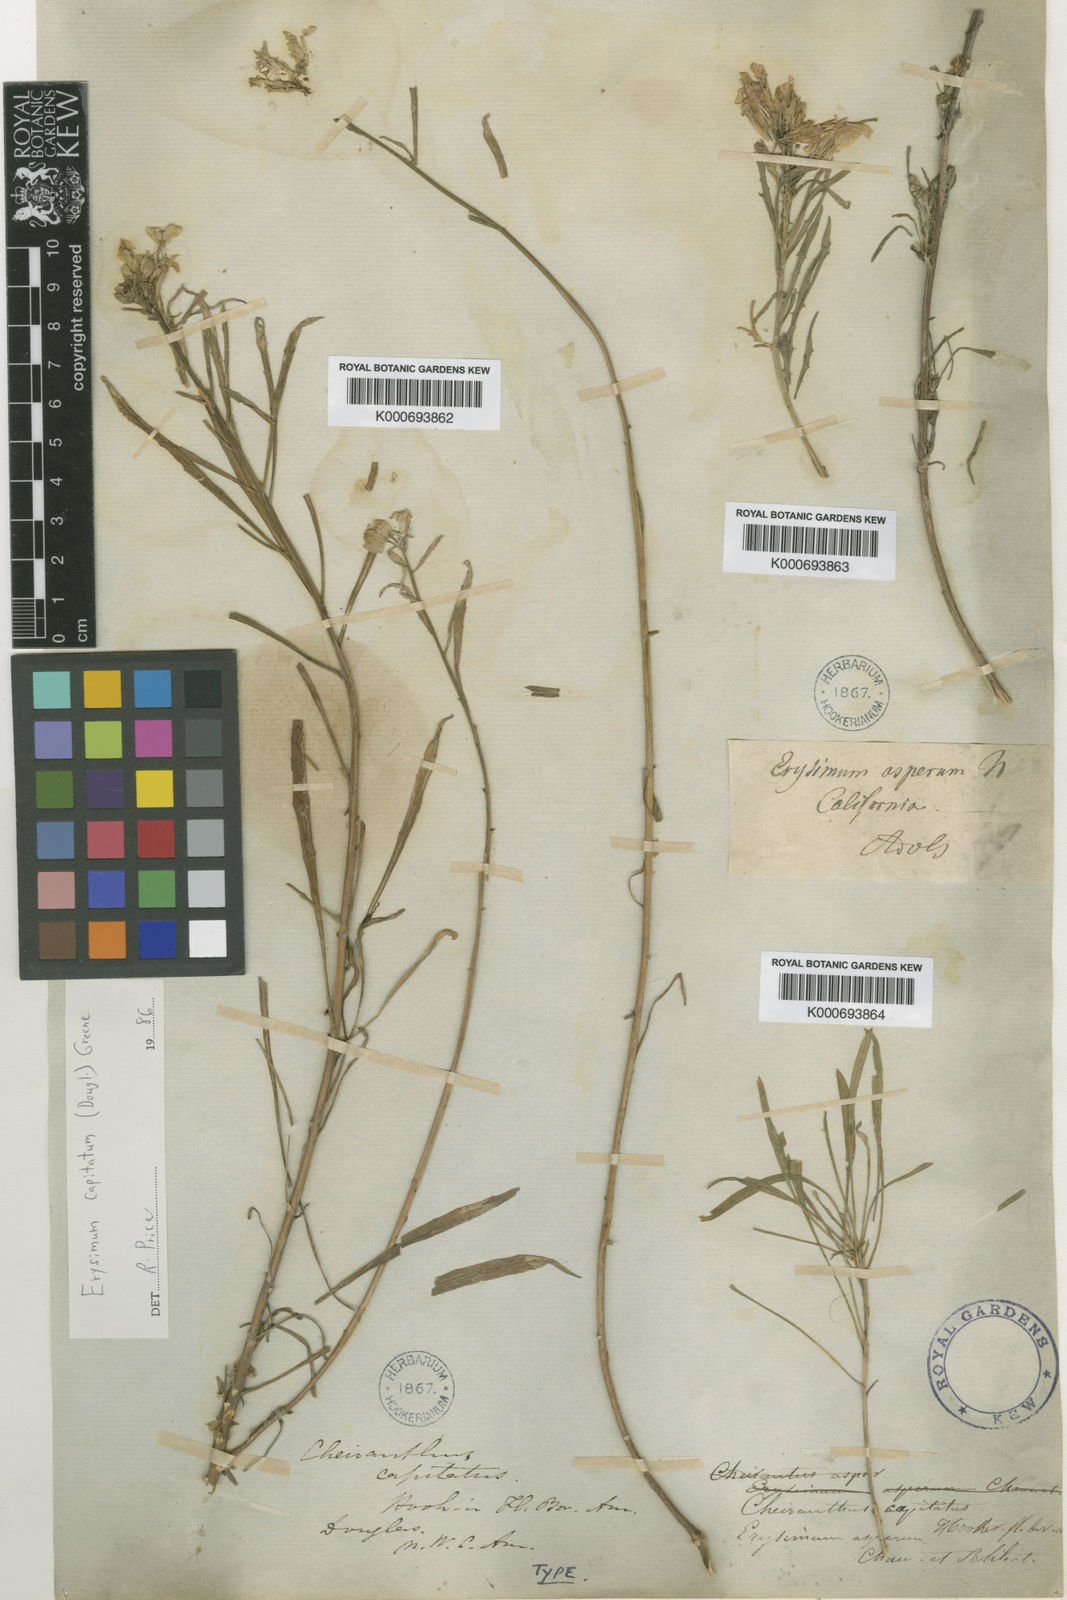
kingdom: Plantae
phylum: Tracheophyta
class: Magnoliopsida
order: Brassicales
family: Brassicaceae
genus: Erysimum
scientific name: Erysimum capitatum
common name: Western wallflower
